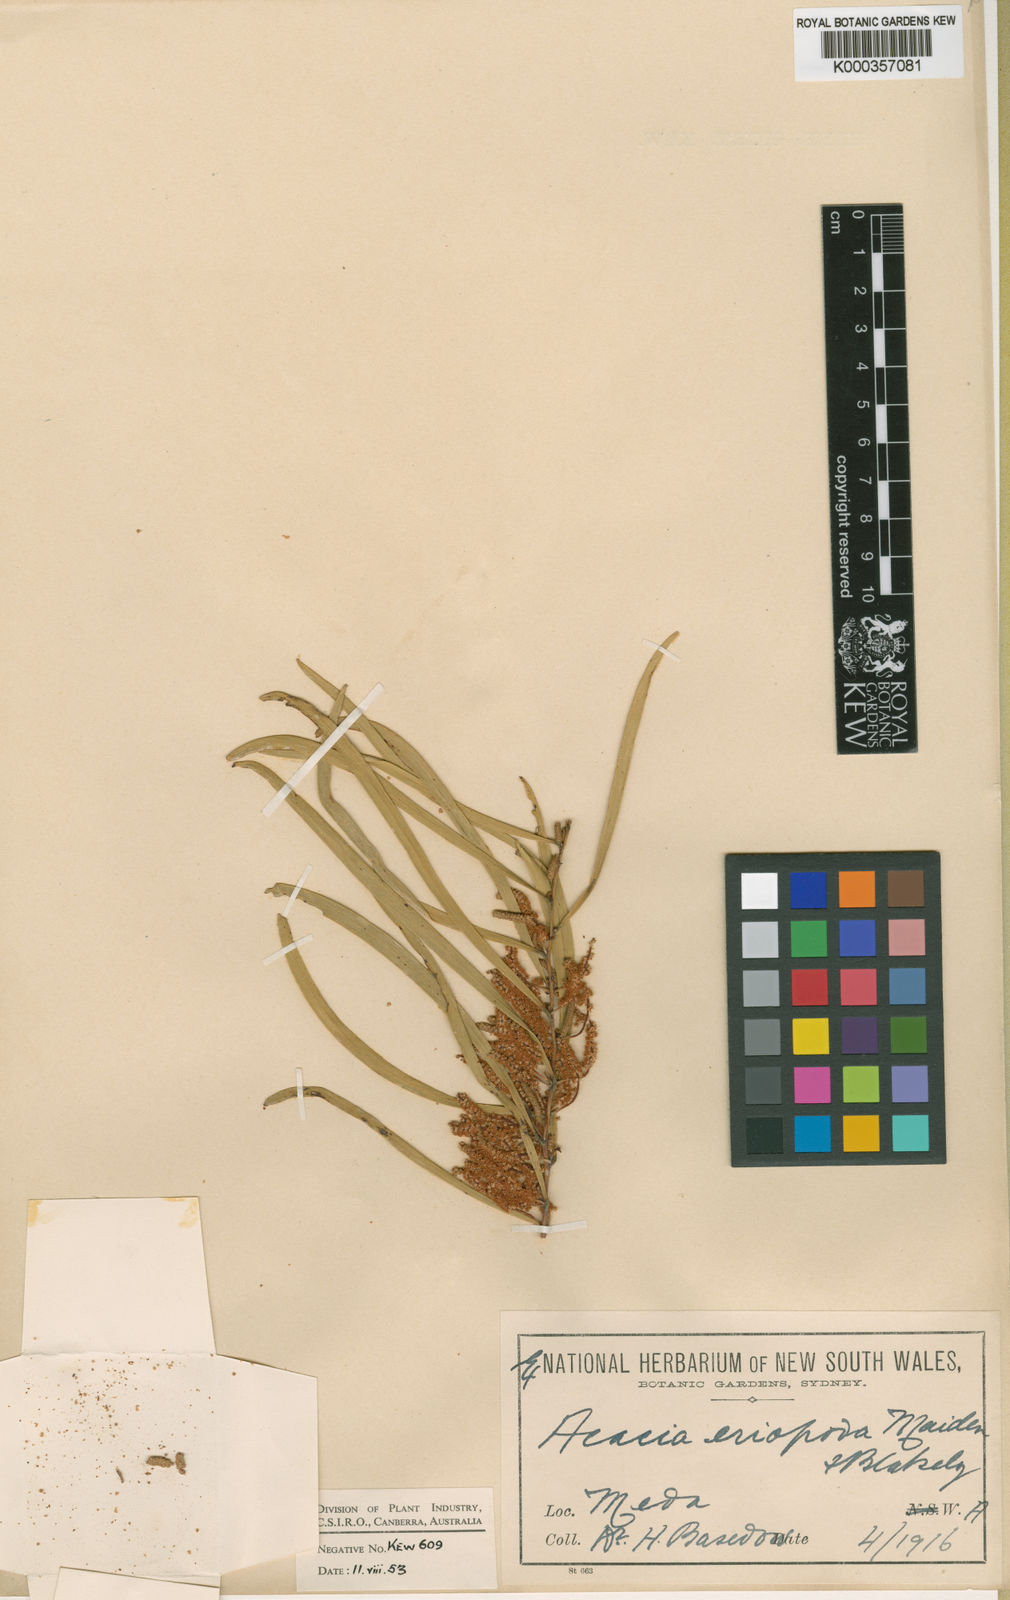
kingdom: Plantae
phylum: Tracheophyta
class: Magnoliopsida
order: Fabales
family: Fabaceae
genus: Acacia
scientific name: Acacia eriopoda
